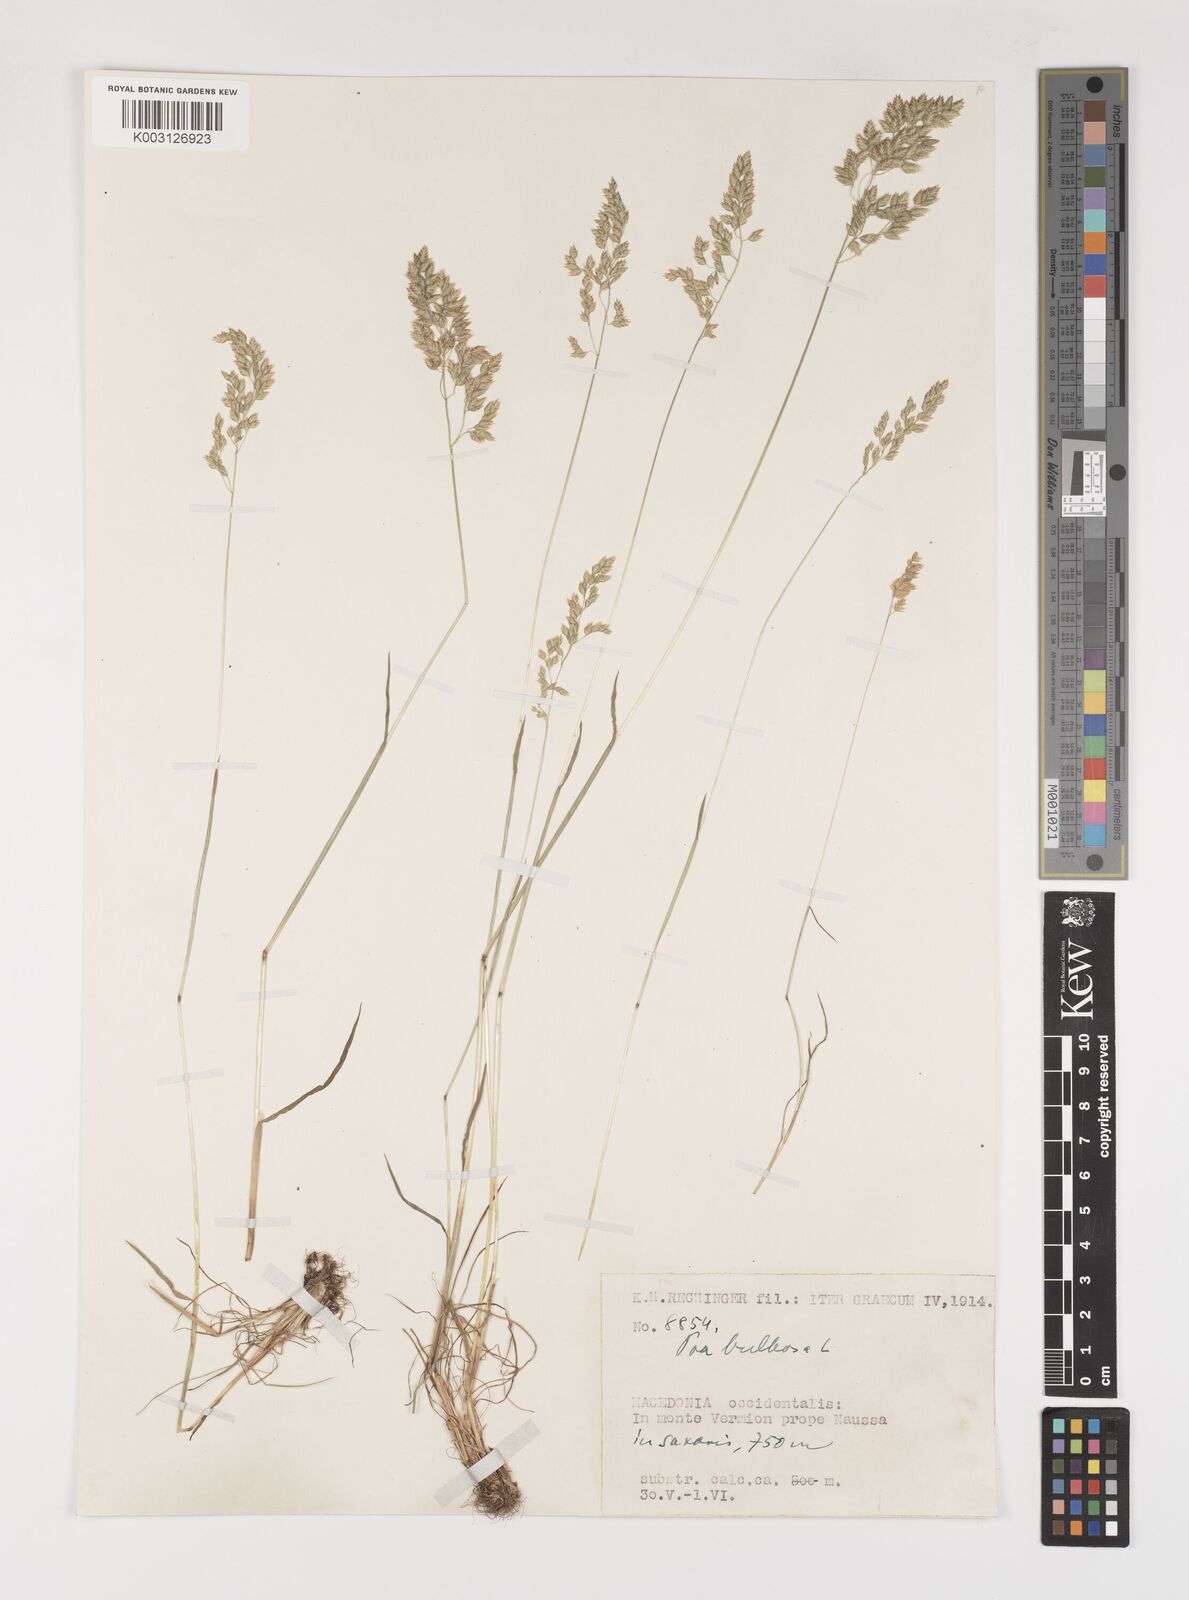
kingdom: Plantae
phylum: Tracheophyta
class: Liliopsida
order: Poales
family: Poaceae
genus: Poa
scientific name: Poa bulbosa
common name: Bulbous bluegrass
